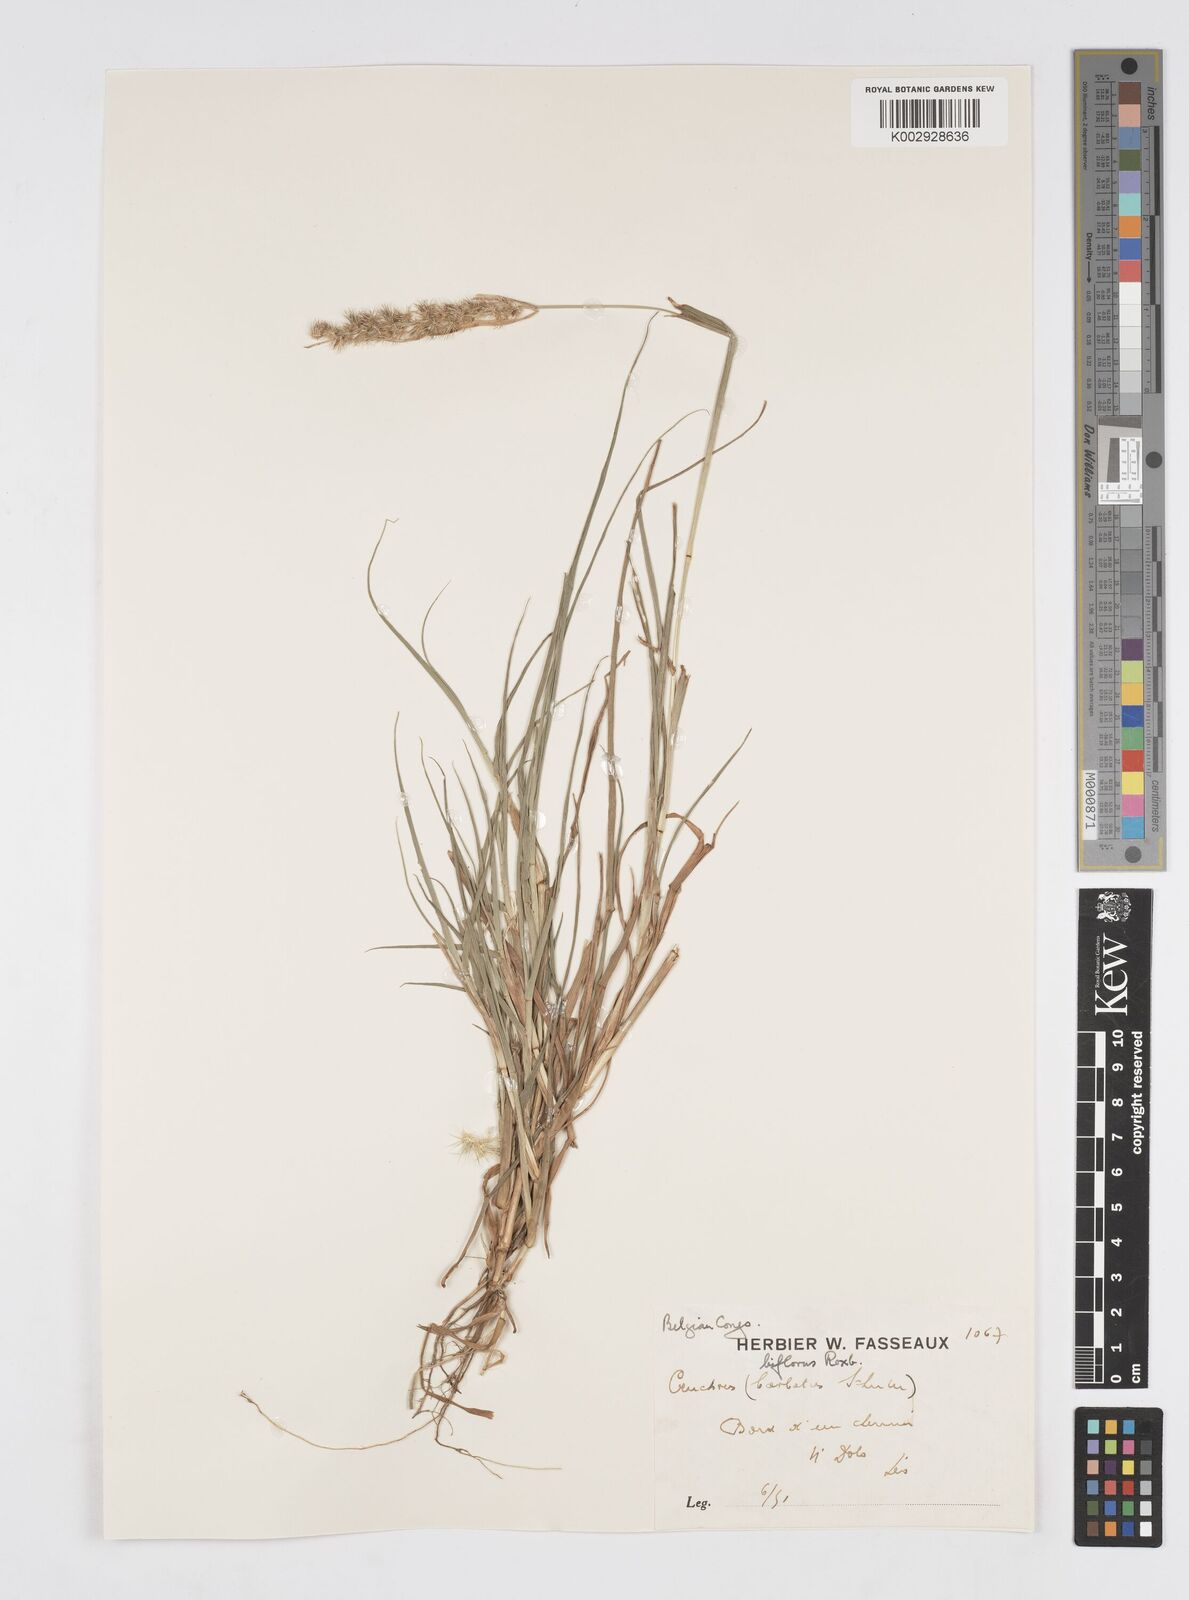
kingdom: Plantae
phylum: Tracheophyta
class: Liliopsida
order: Poales
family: Poaceae
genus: Cenchrus
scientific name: Cenchrus biflorus
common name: Indian sandbur
